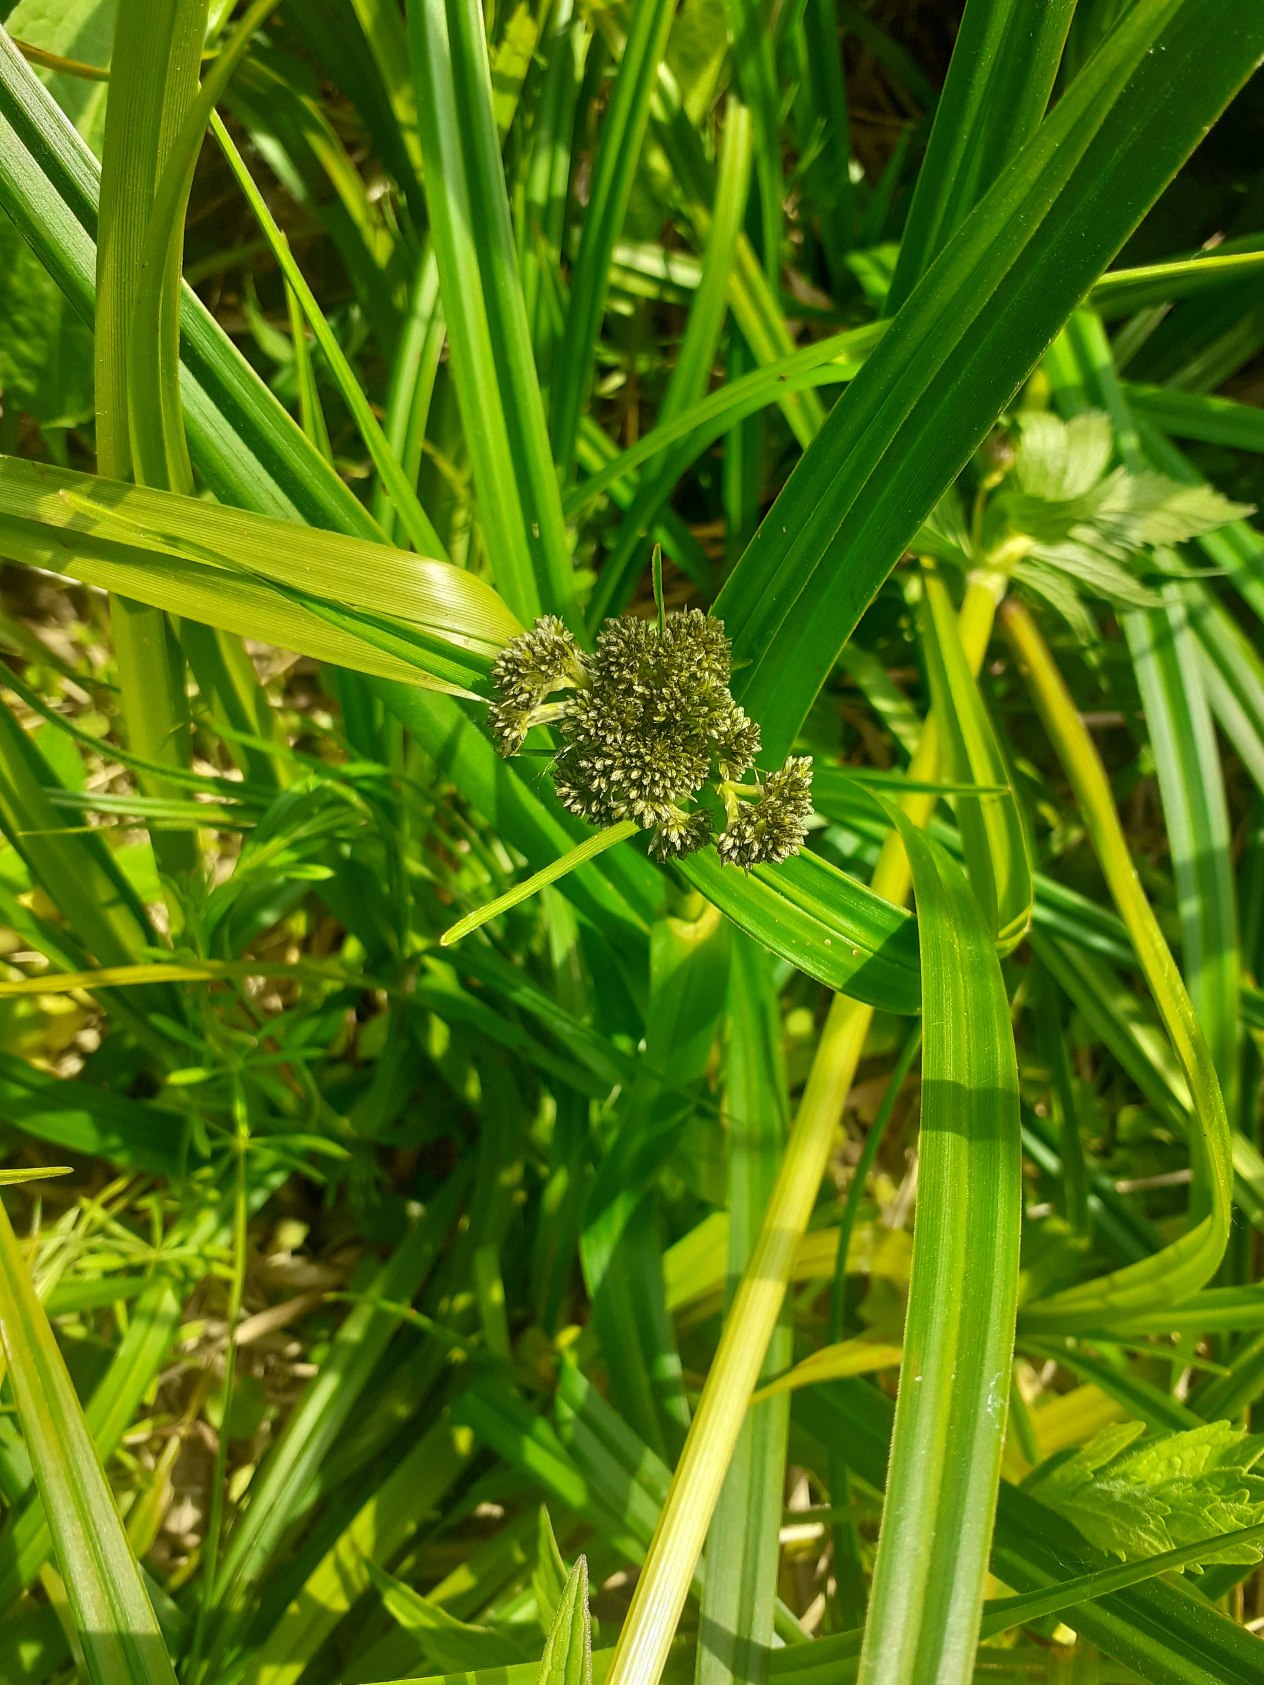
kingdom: Plantae
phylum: Tracheophyta
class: Liliopsida
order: Poales
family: Cyperaceae
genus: Scirpus
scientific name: Scirpus sylvaticus
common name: Skov-kogleaks
